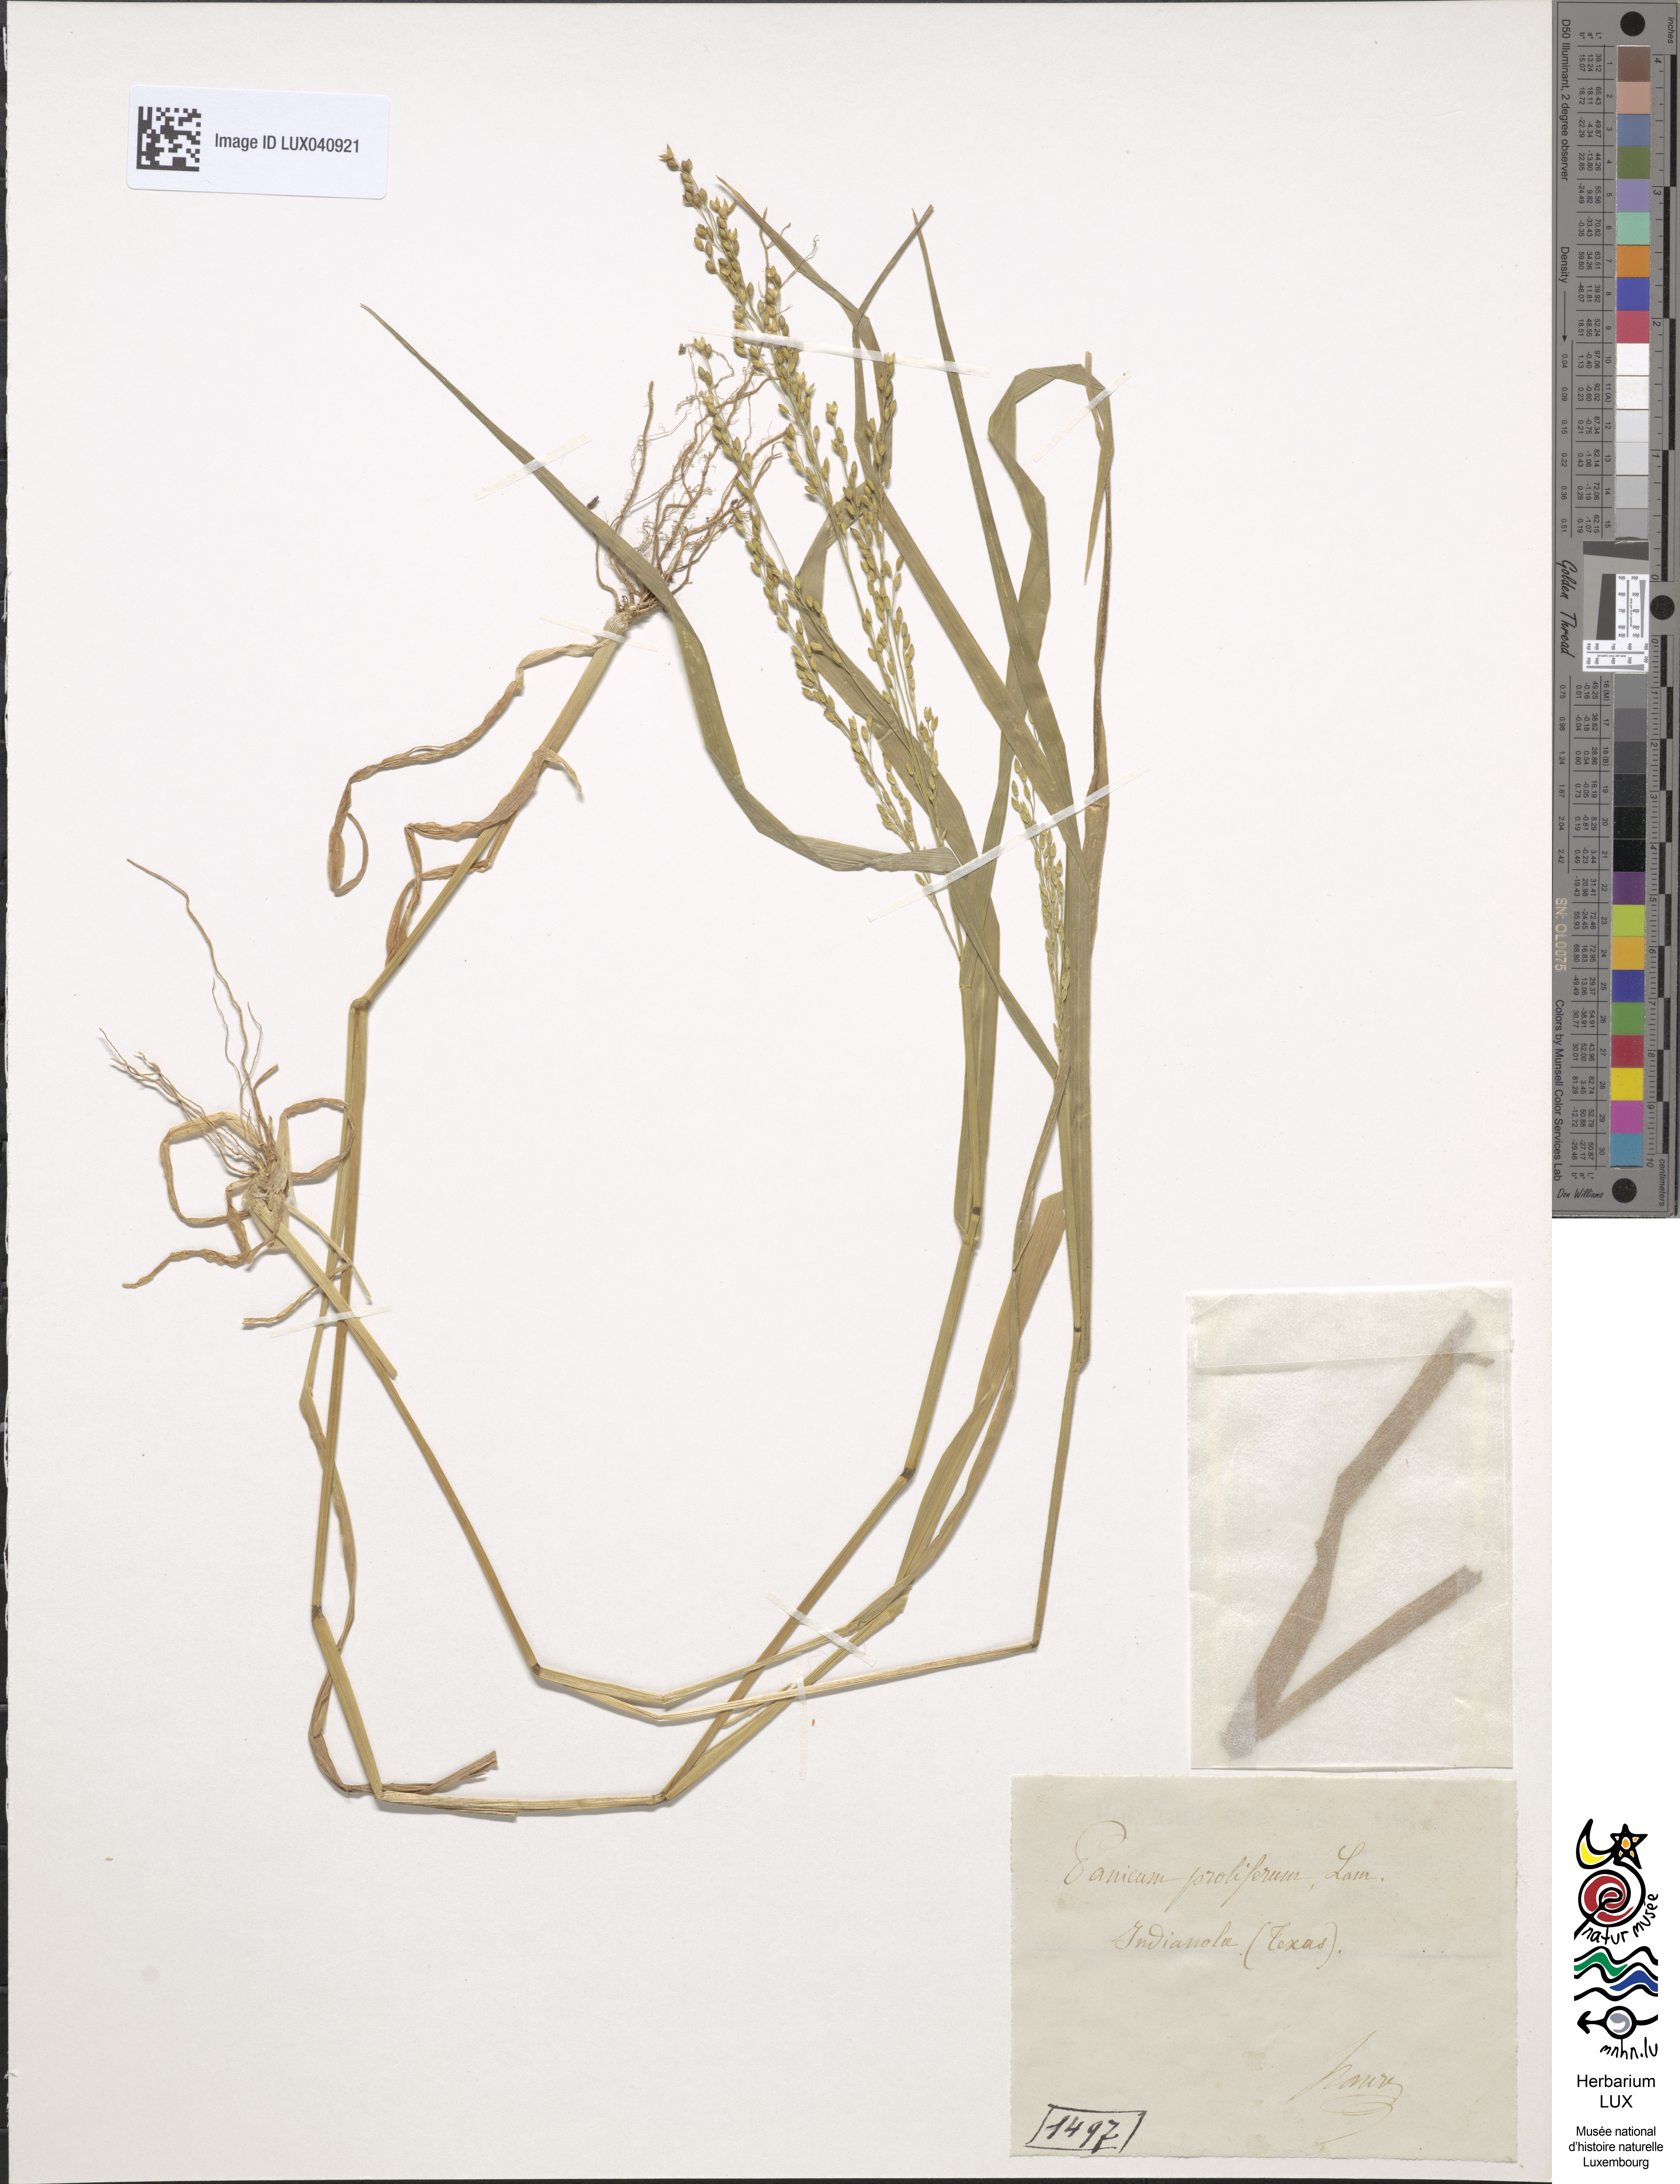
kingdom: Plantae
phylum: Tracheophyta
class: Liliopsida
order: Poales
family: Poaceae
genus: Panicum
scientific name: Panicum antidotale
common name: Blue panicum
